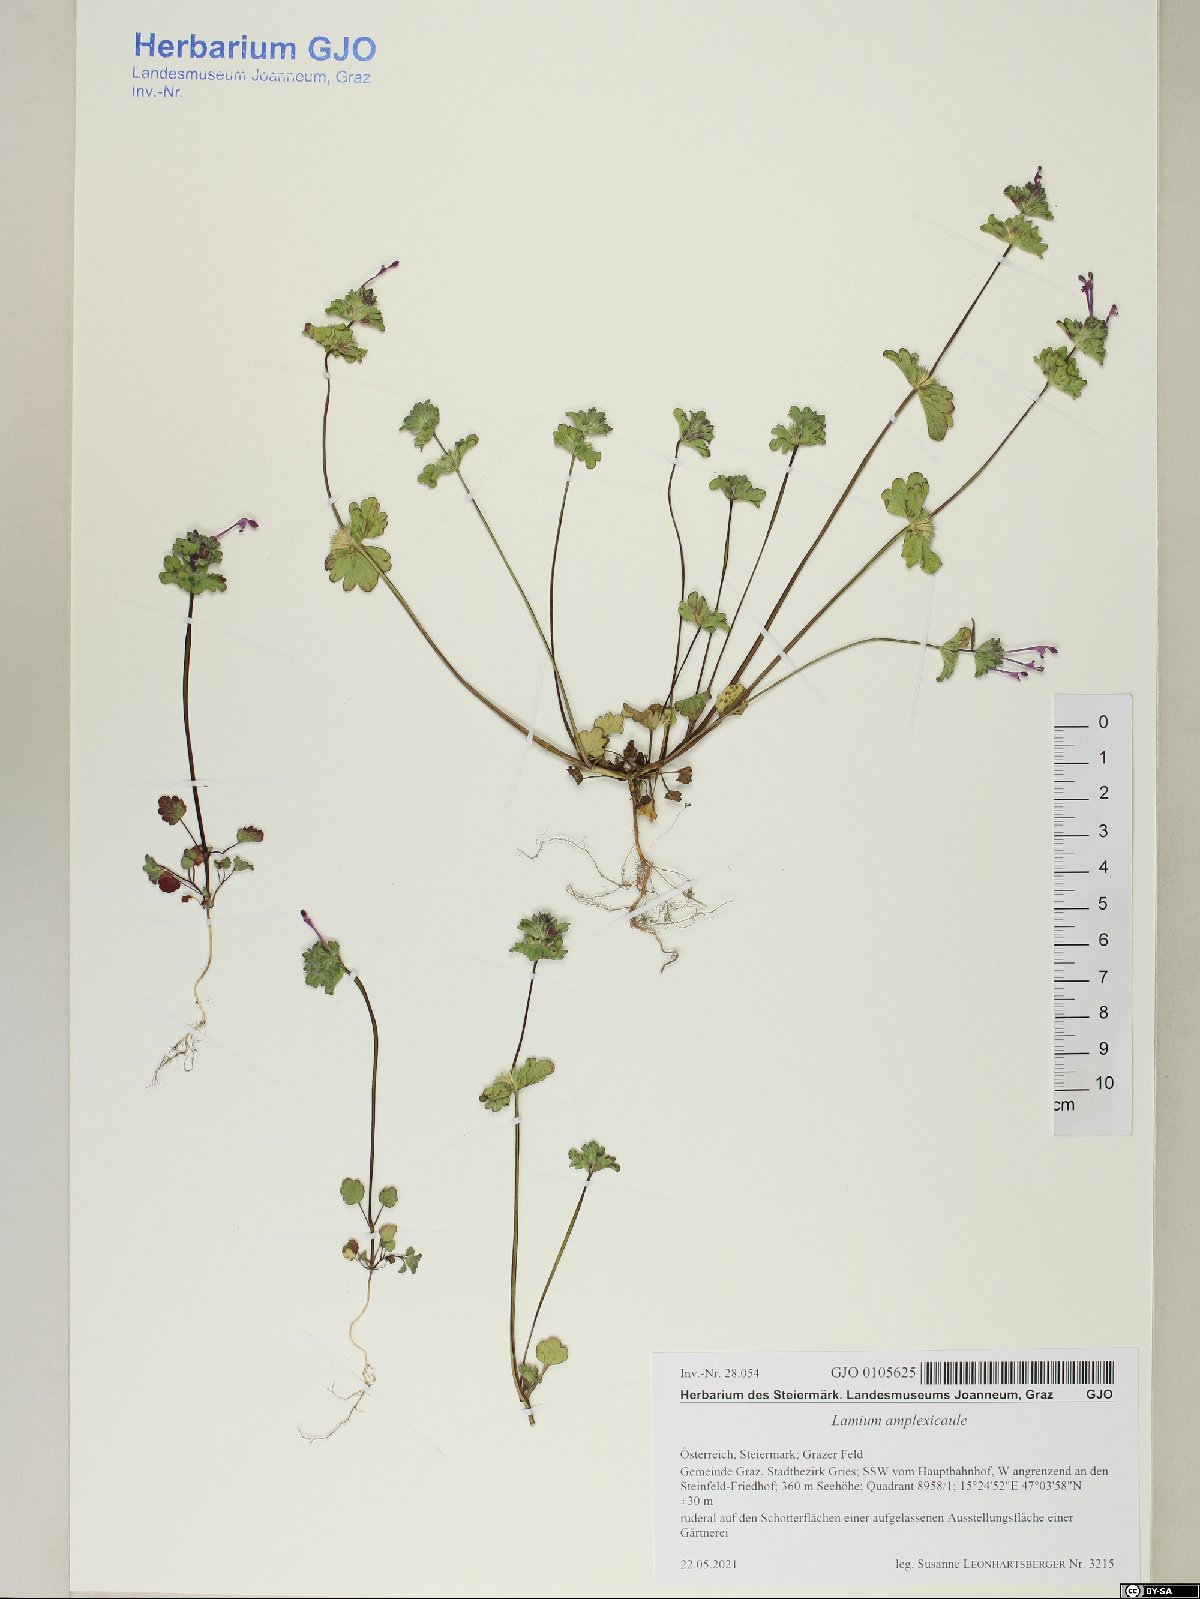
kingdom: Plantae
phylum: Tracheophyta
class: Magnoliopsida
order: Lamiales
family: Lamiaceae
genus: Lamium
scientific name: Lamium amplexicaule
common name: Henbit dead-nettle
